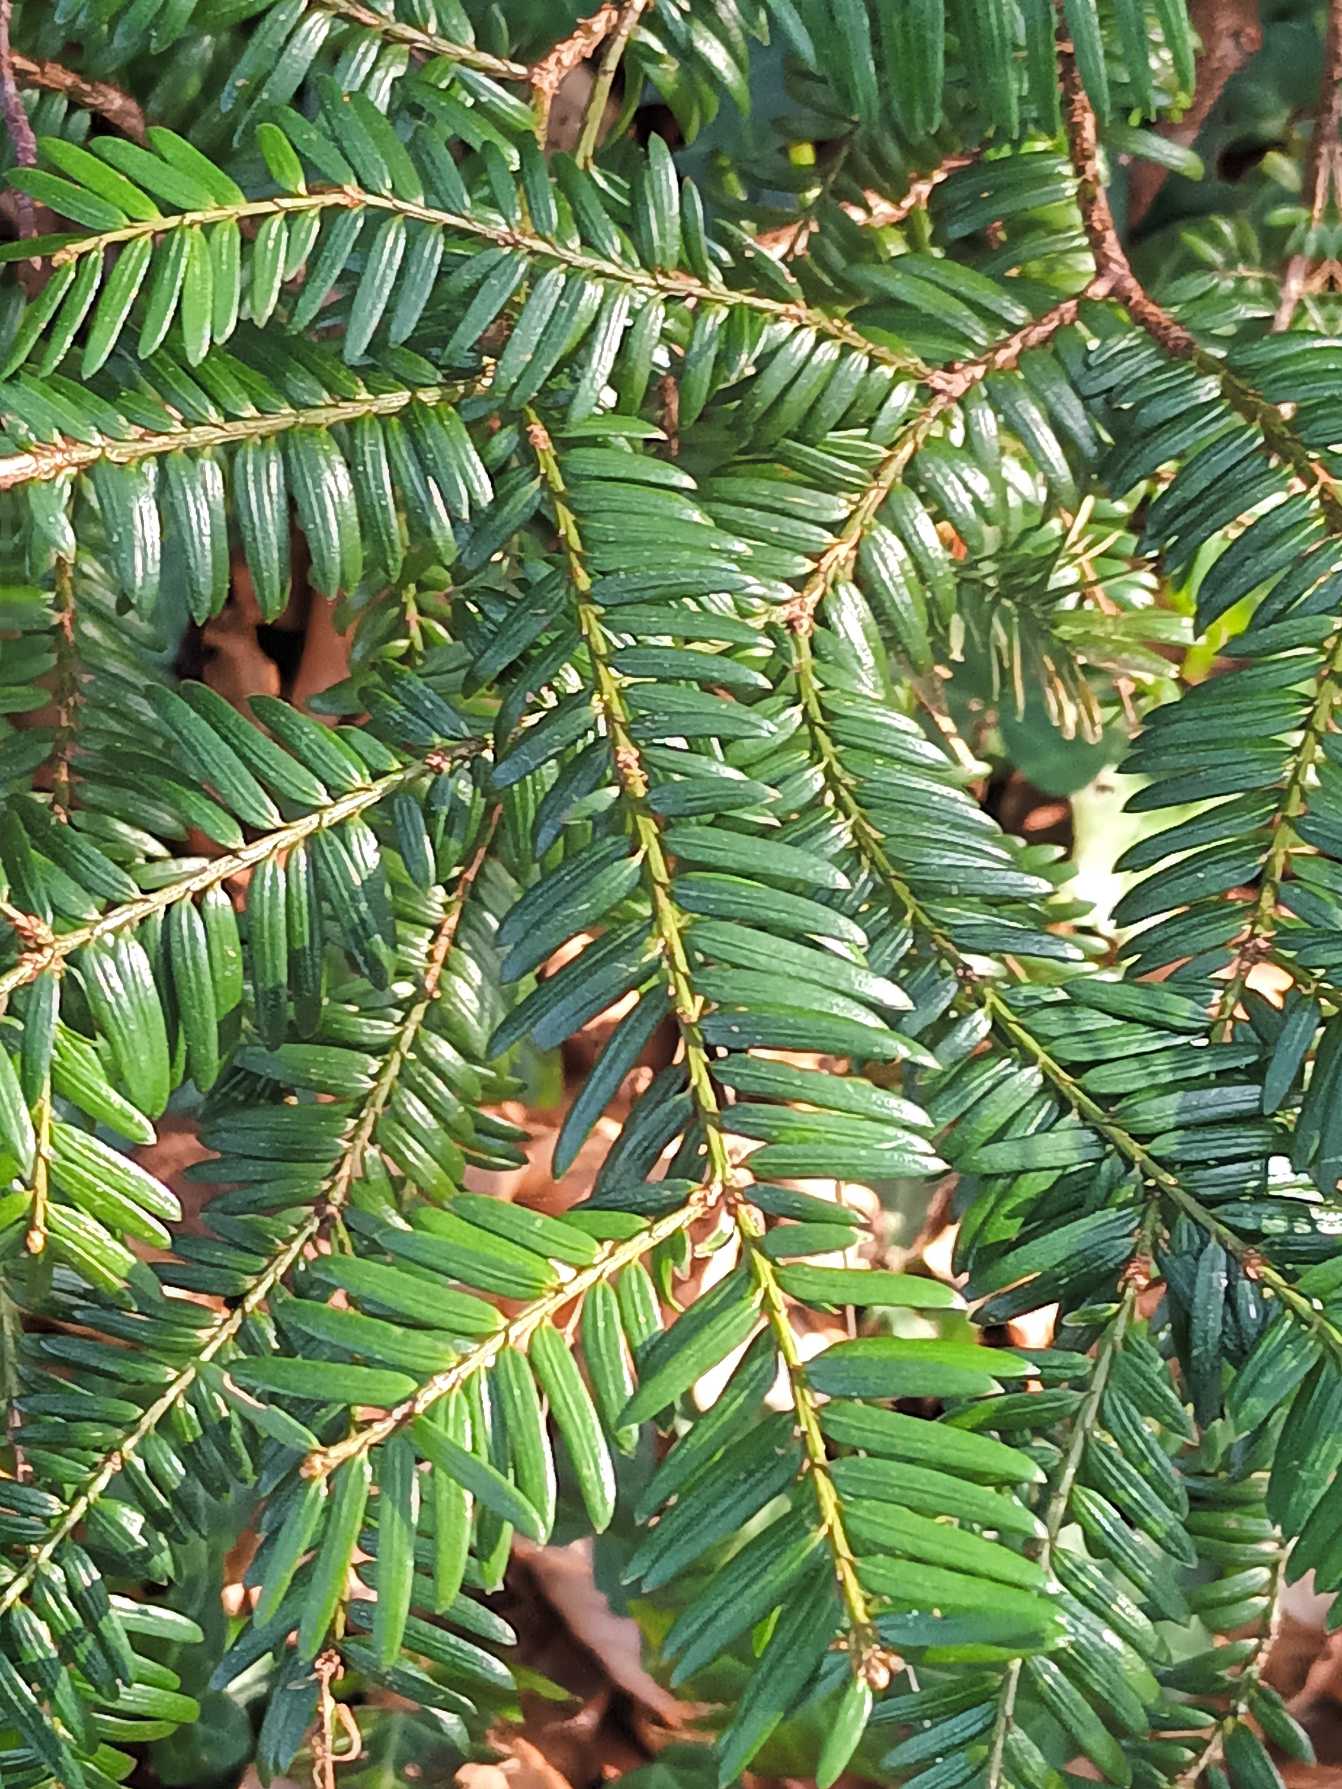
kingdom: Plantae
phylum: Tracheophyta
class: Pinopsida
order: Pinales
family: Taxaceae
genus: Taxus
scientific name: Taxus baccata
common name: Almindelig taks
